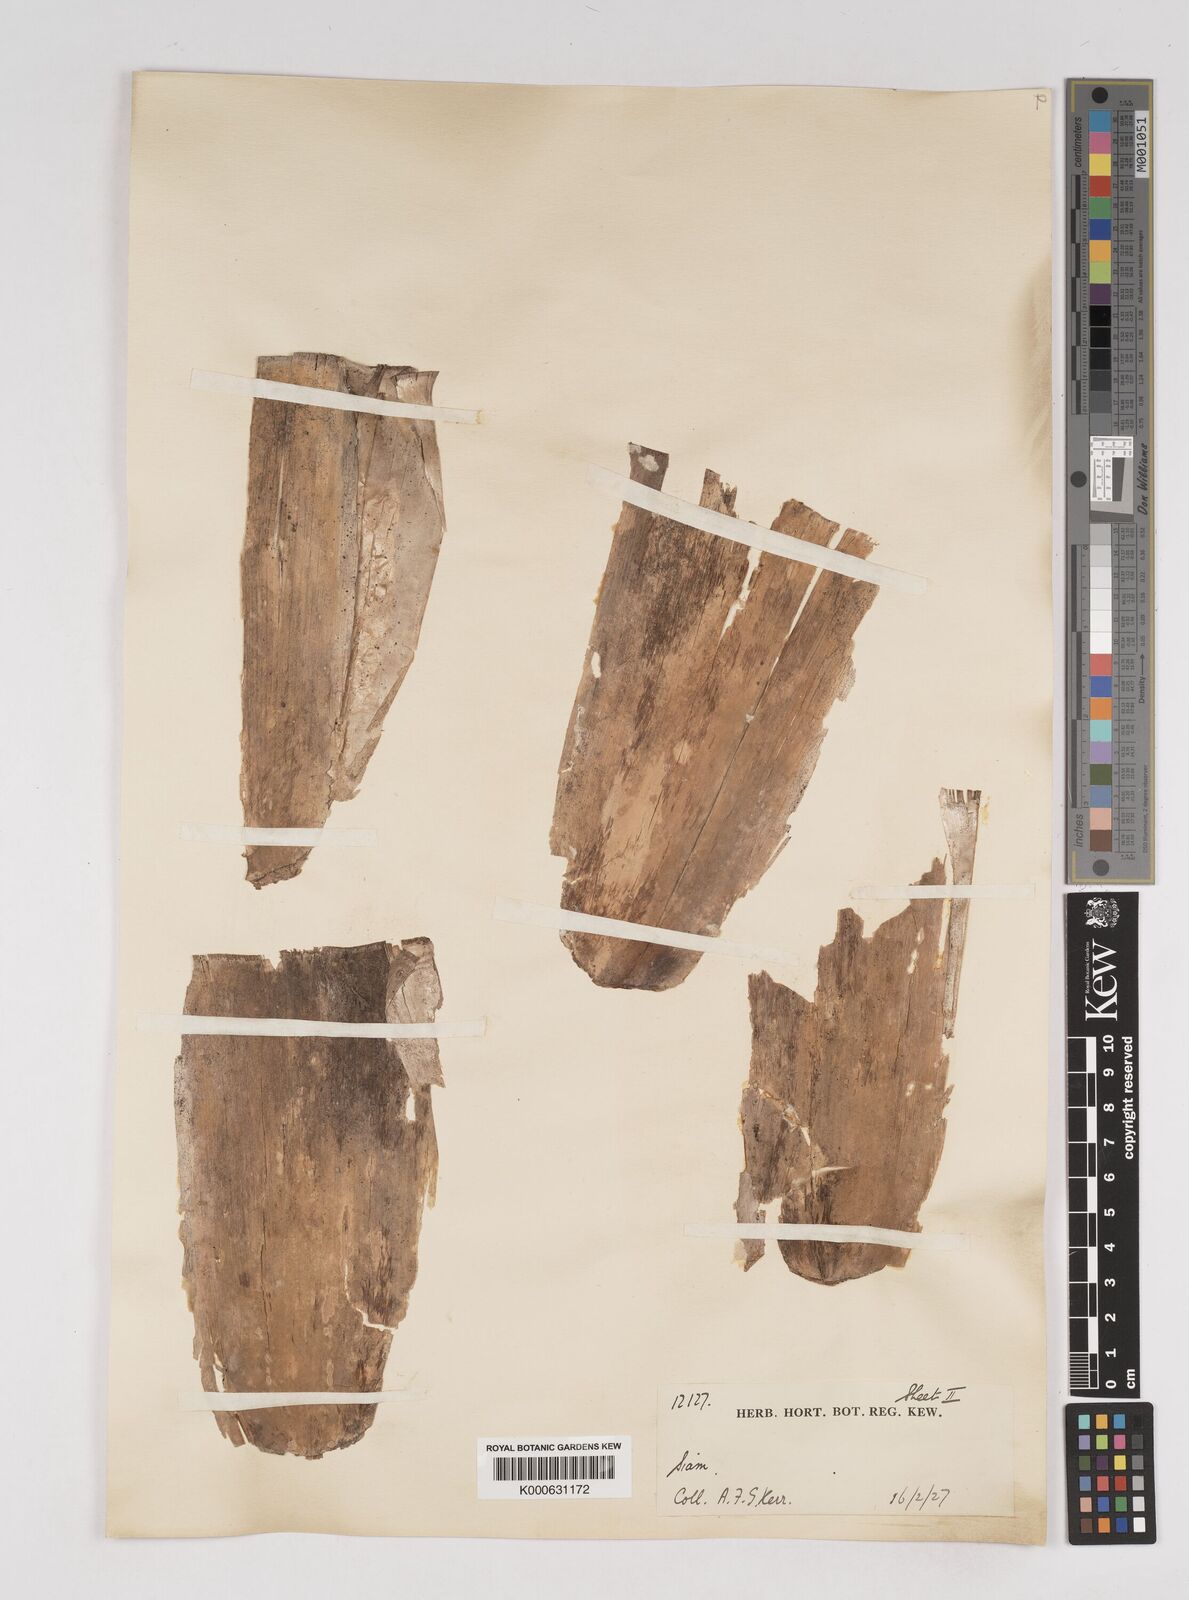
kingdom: Plantae
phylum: Tracheophyta
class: Liliopsida
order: Poales
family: Poaceae
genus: Gigantochloa
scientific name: Gigantochloa
